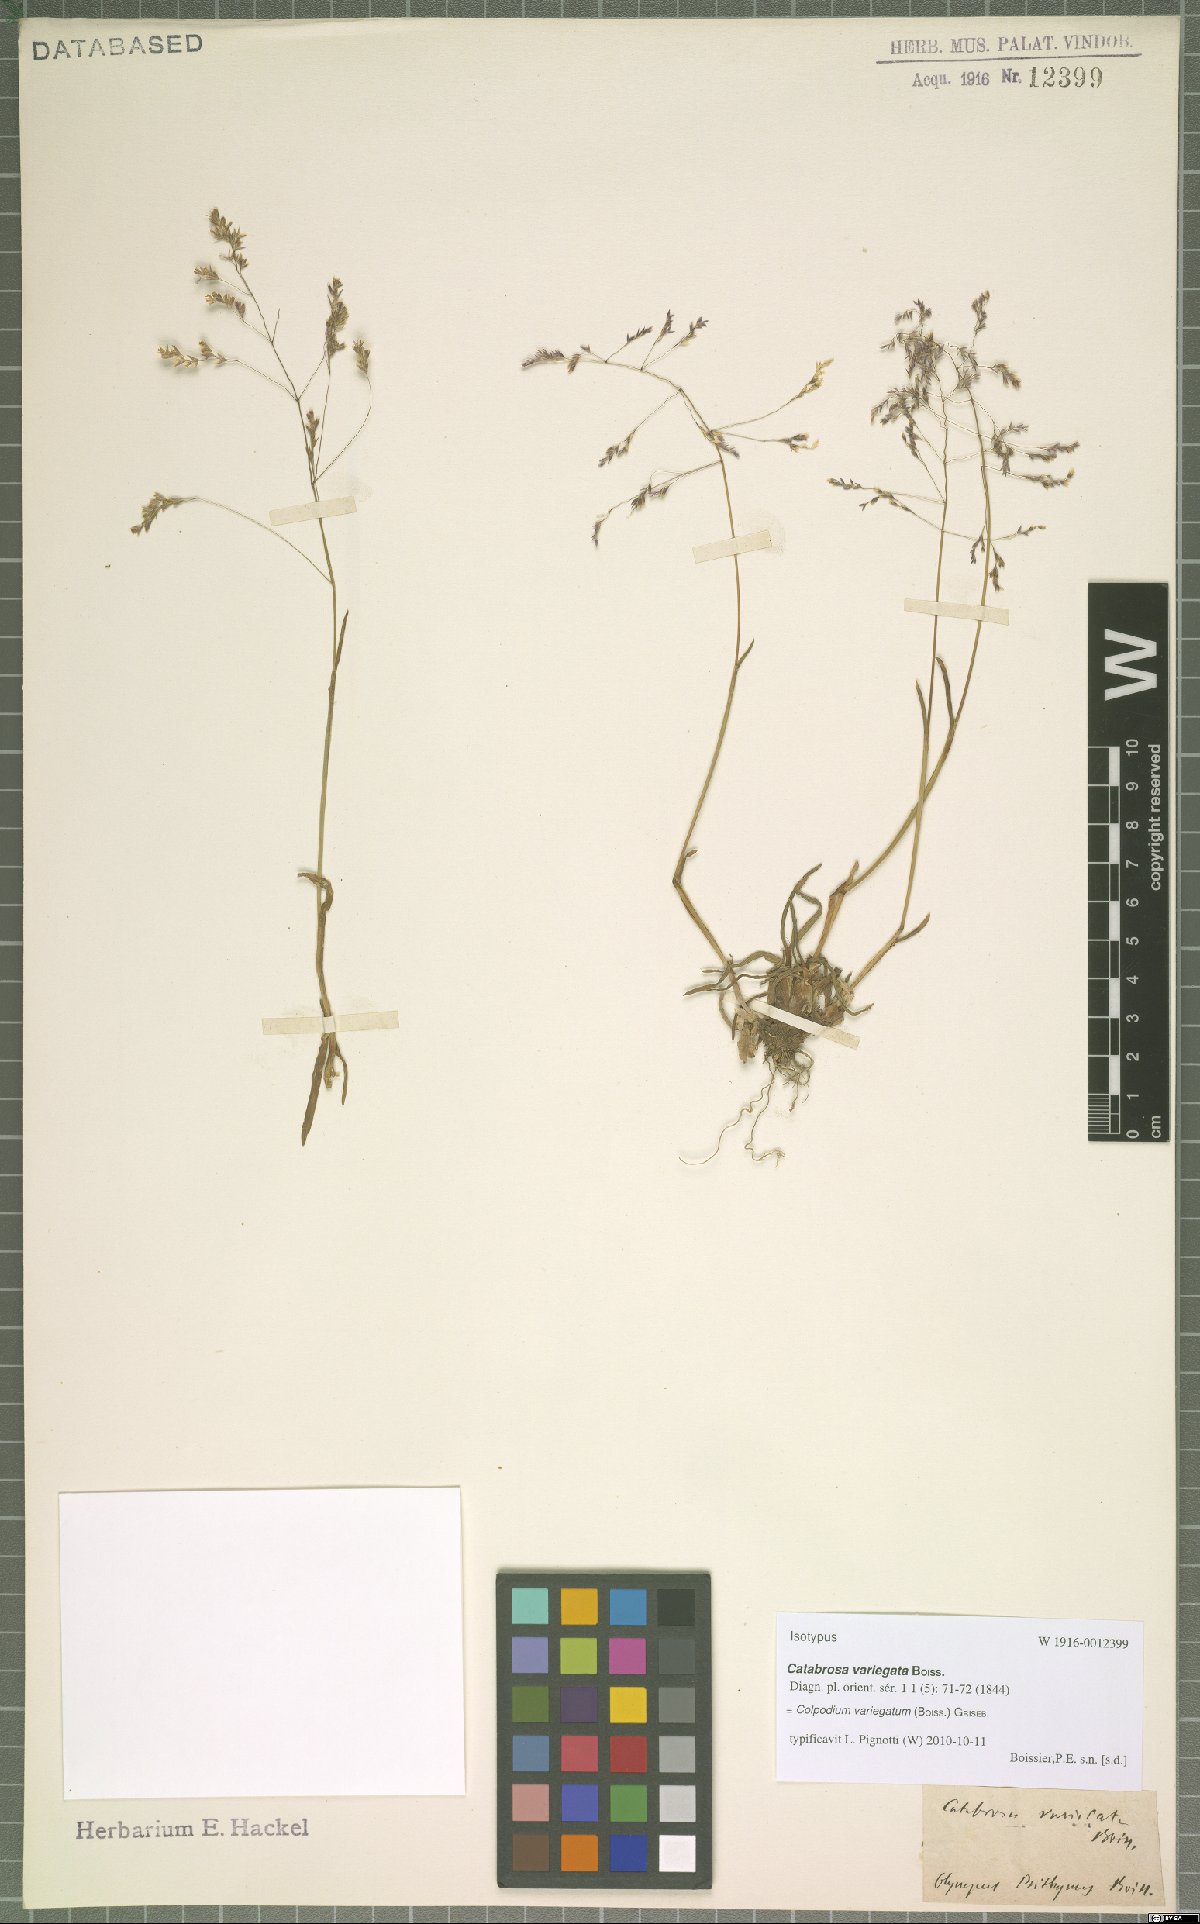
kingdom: Plantae
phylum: Tracheophyta
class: Liliopsida
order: Poales
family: Poaceae
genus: Catabrosella
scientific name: Catabrosella variegata
